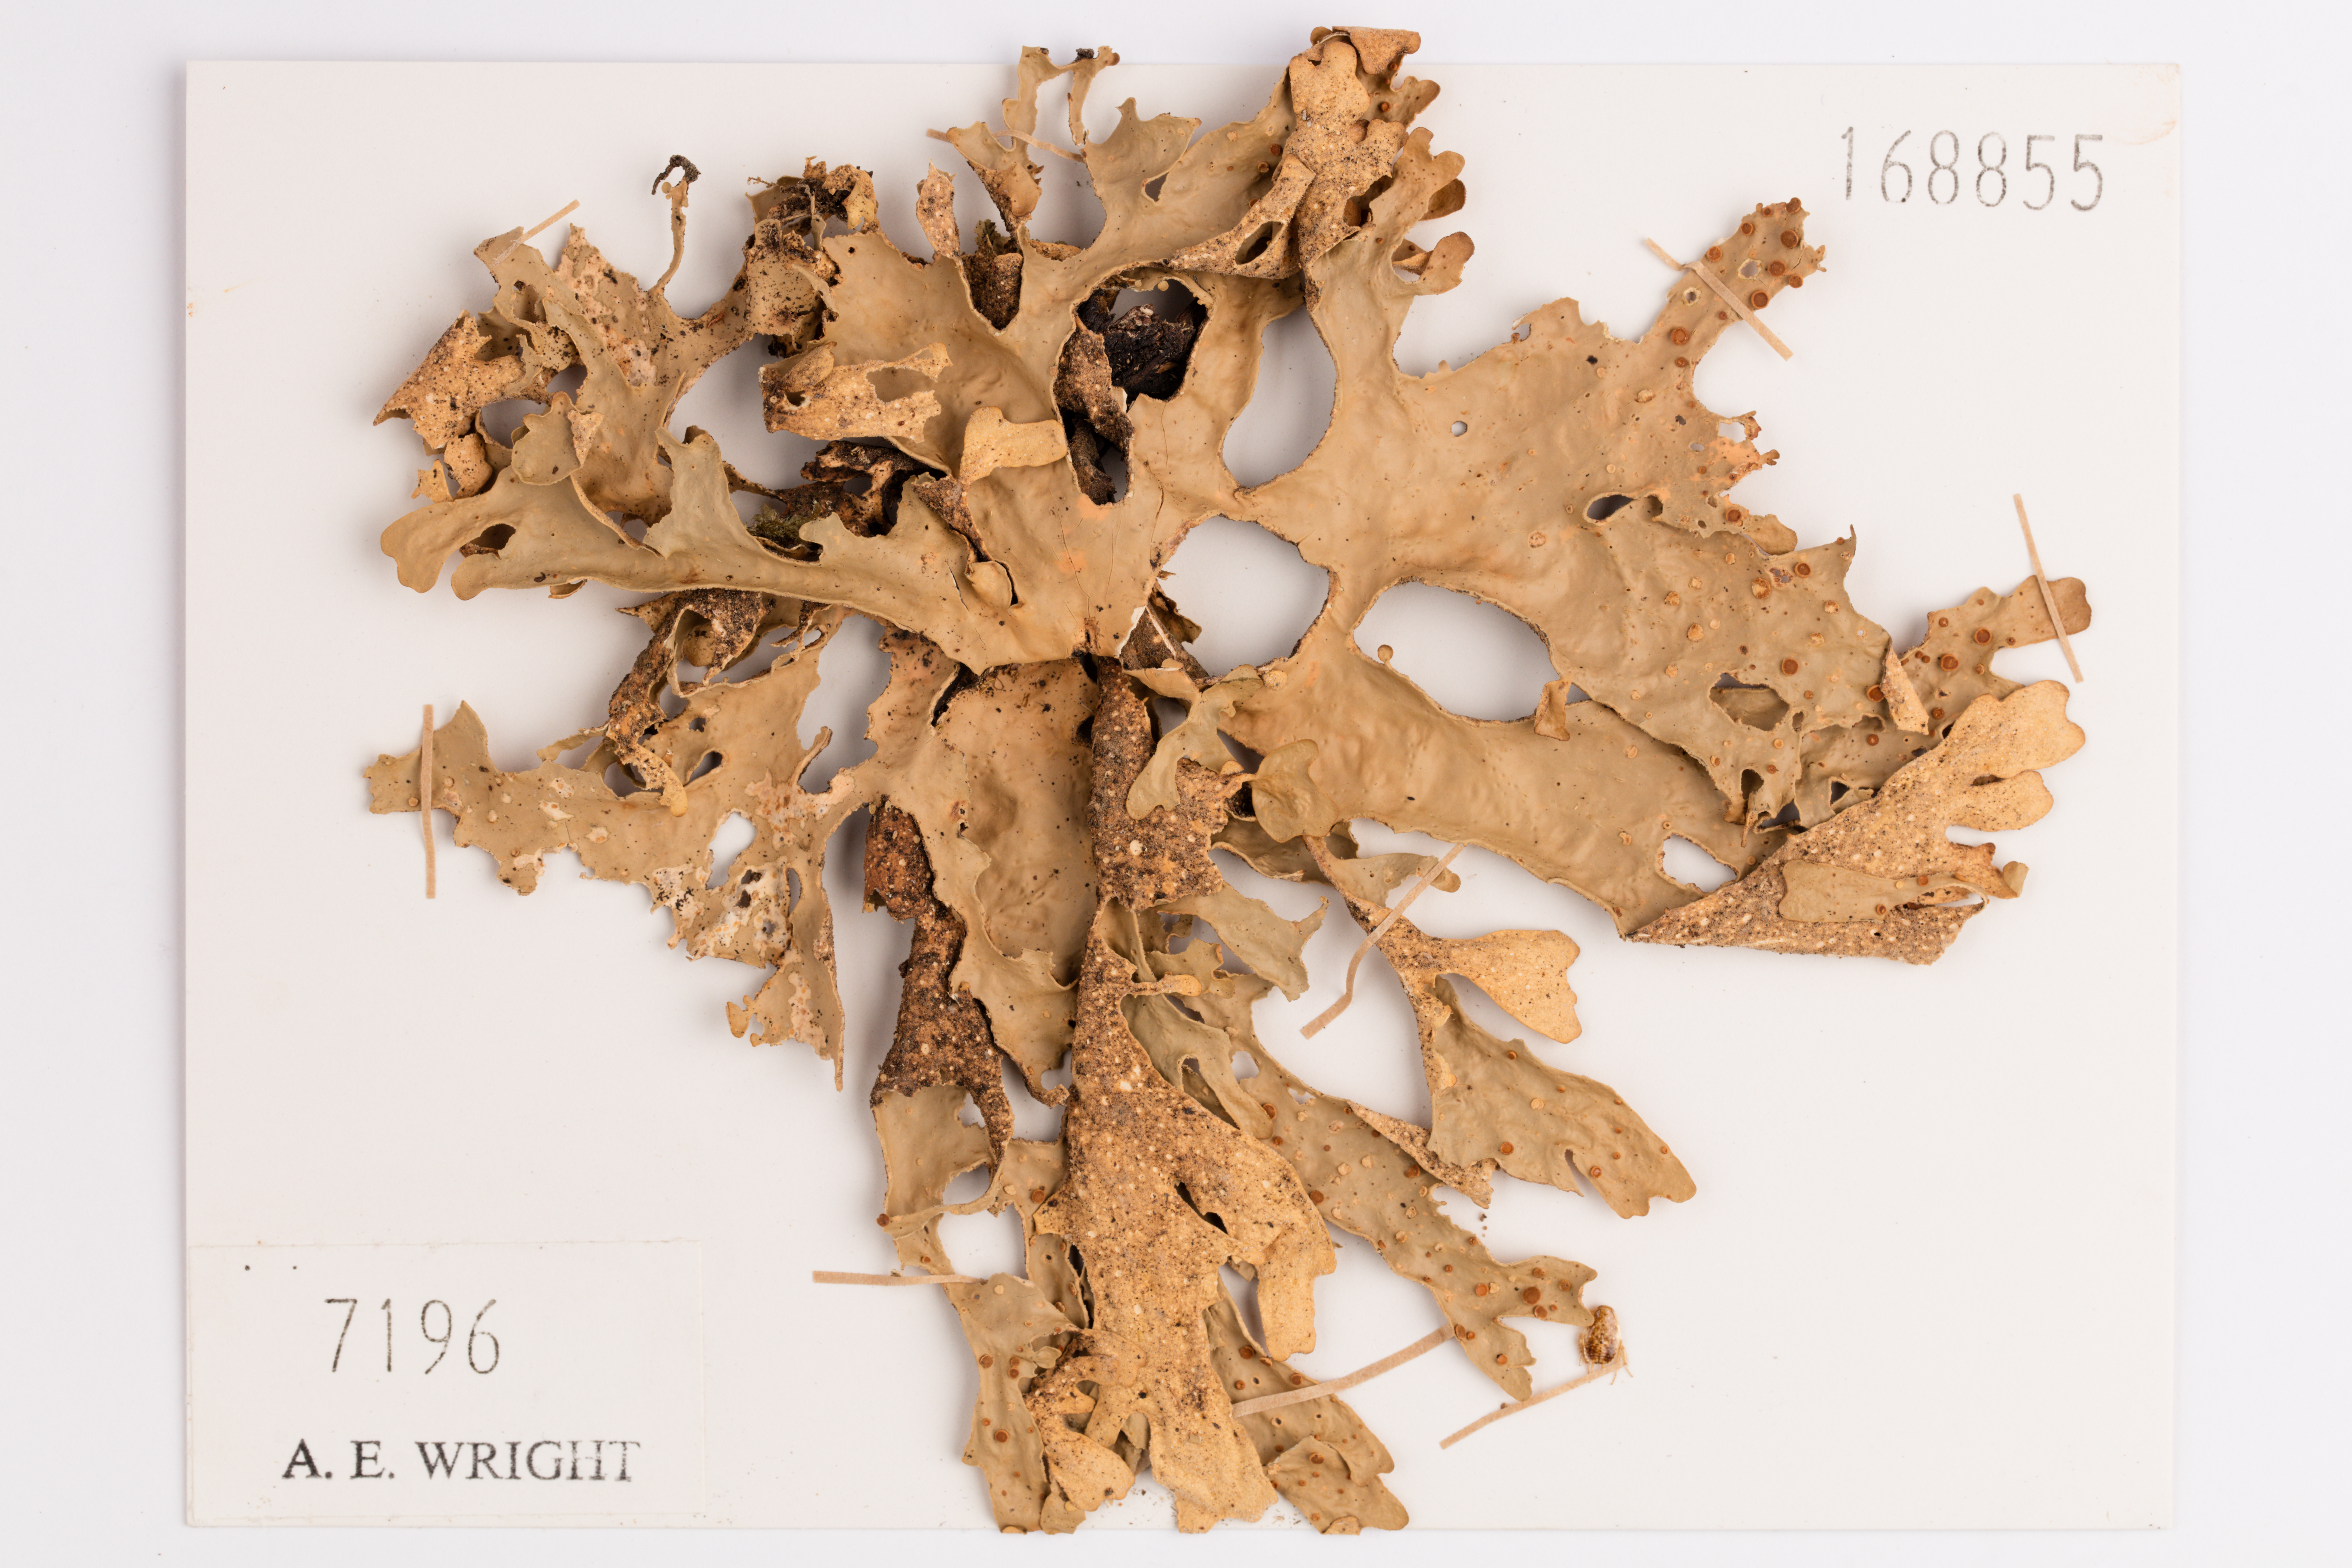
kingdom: Fungi
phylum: Ascomycota
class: Lecanoromycetes
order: Peltigerales
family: Lobariaceae
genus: Sticta
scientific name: Sticta latifrons
